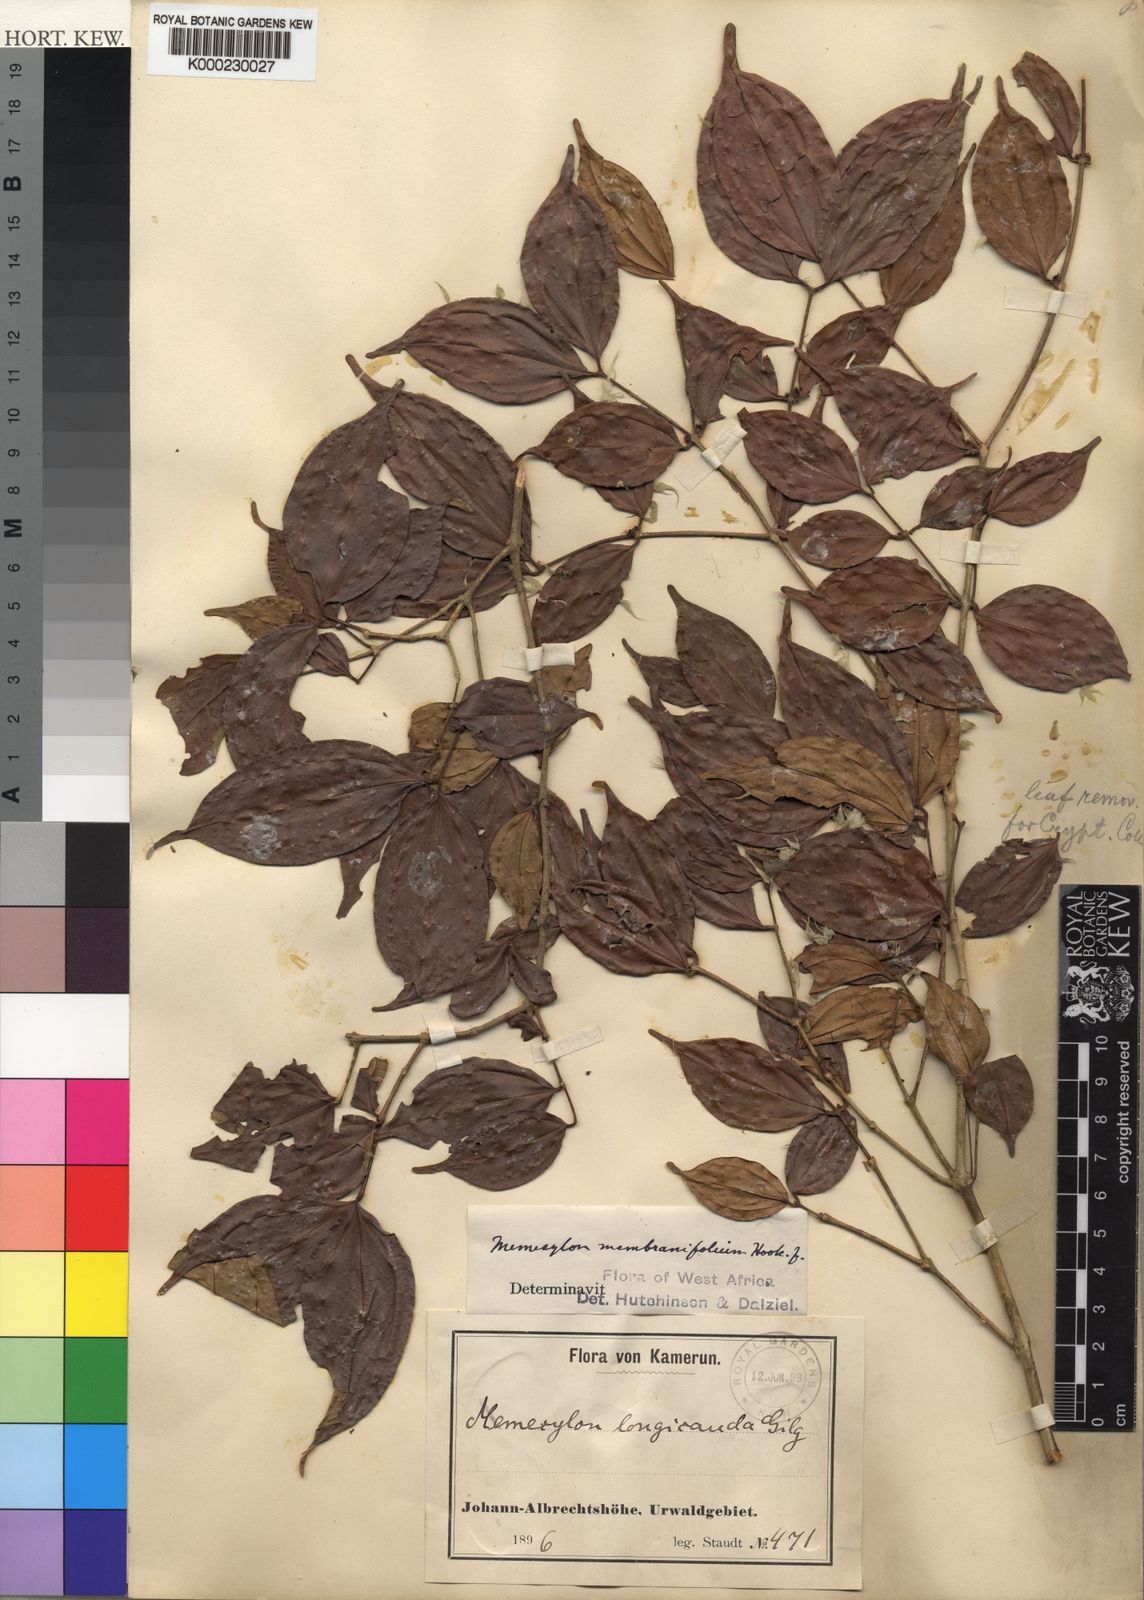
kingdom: Plantae
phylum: Tracheophyta
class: Magnoliopsida
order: Myrtales
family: Melastomataceae
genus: Warneckea
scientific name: Warneckea membranifolia
